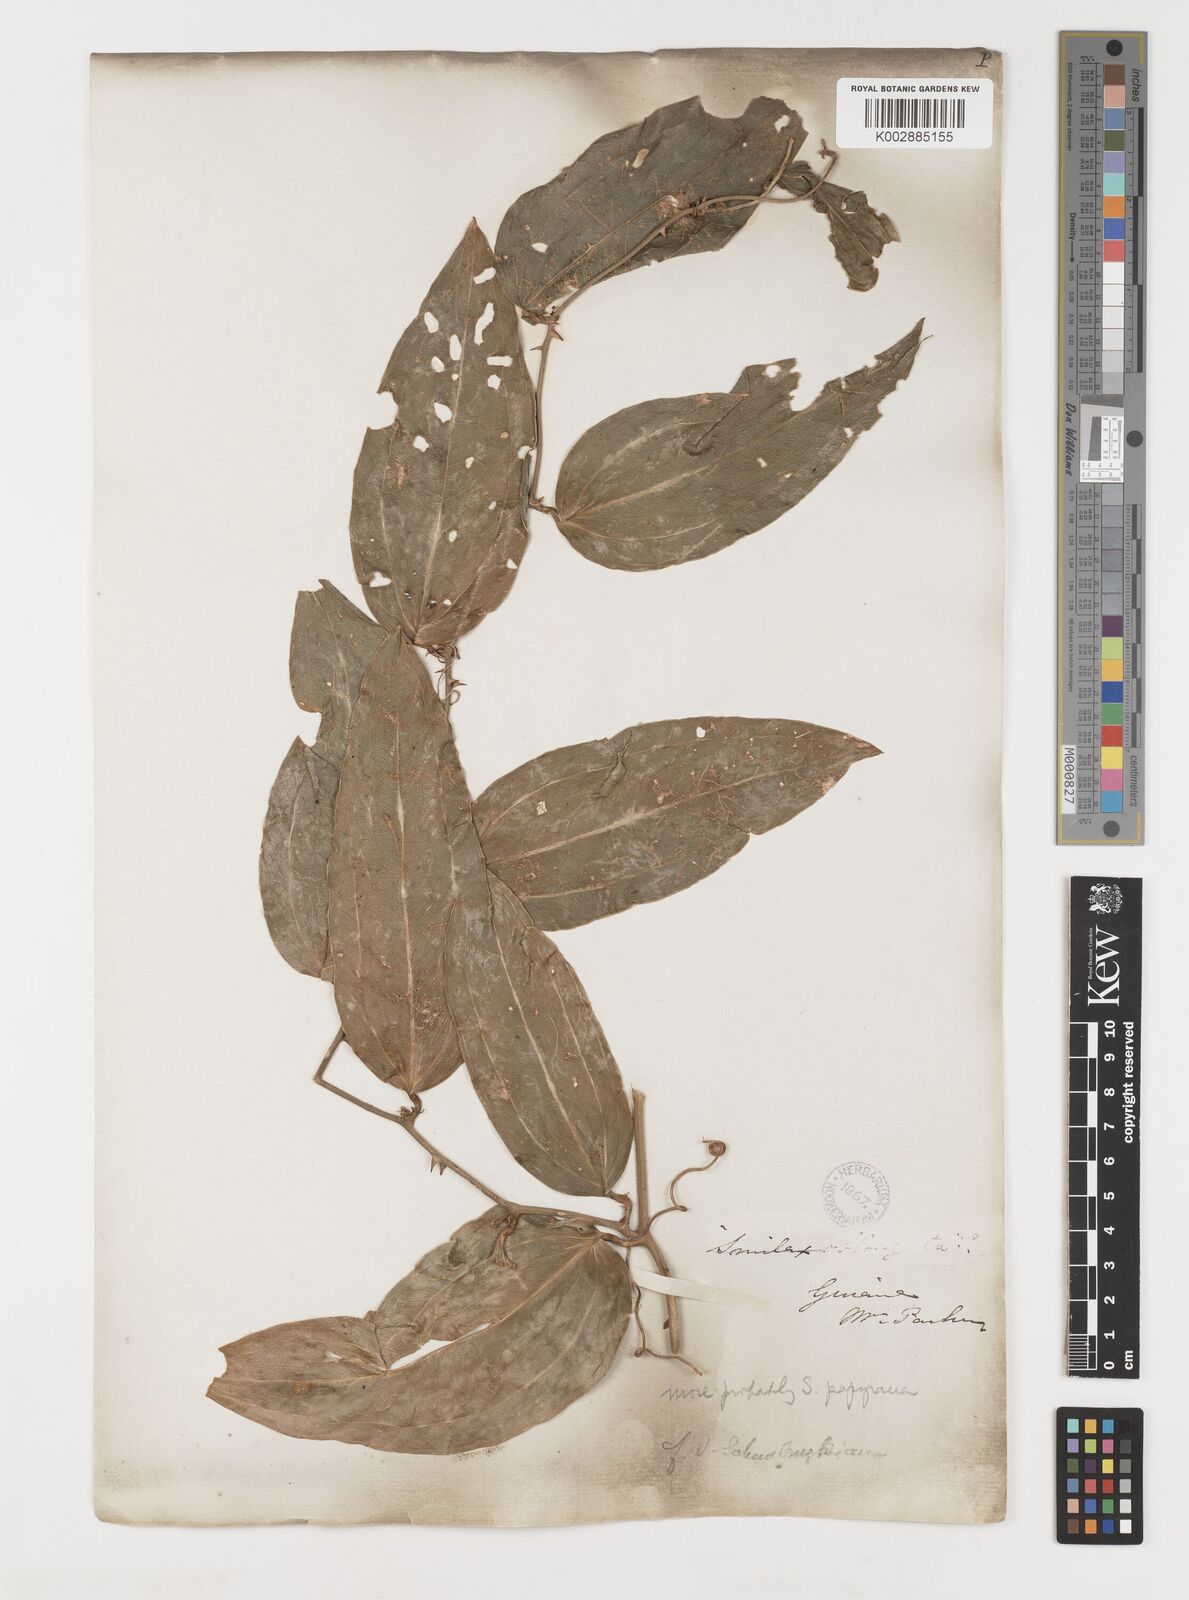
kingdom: Plantae
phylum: Tracheophyta
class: Liliopsida
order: Liliales
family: Smilacaceae
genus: Smilax
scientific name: Smilax
